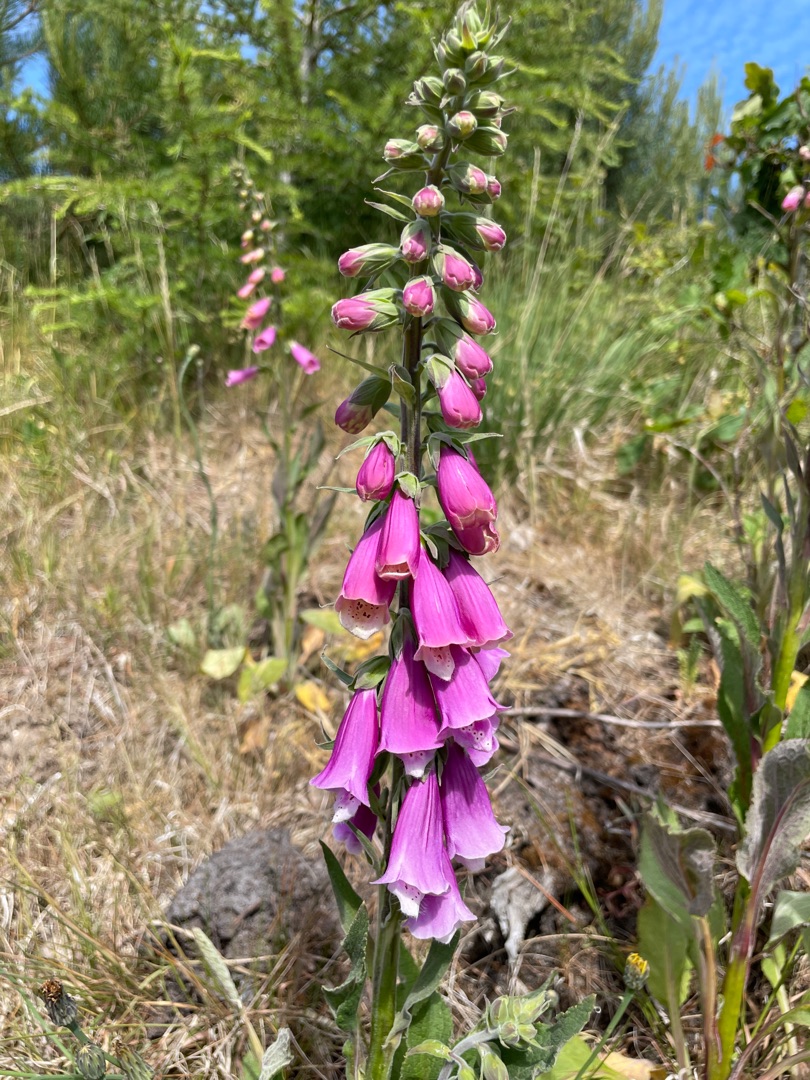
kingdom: Plantae
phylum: Tracheophyta
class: Magnoliopsida
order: Lamiales
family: Plantaginaceae
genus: Digitalis
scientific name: Digitalis purpurea
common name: Almindelig fingerbøl
